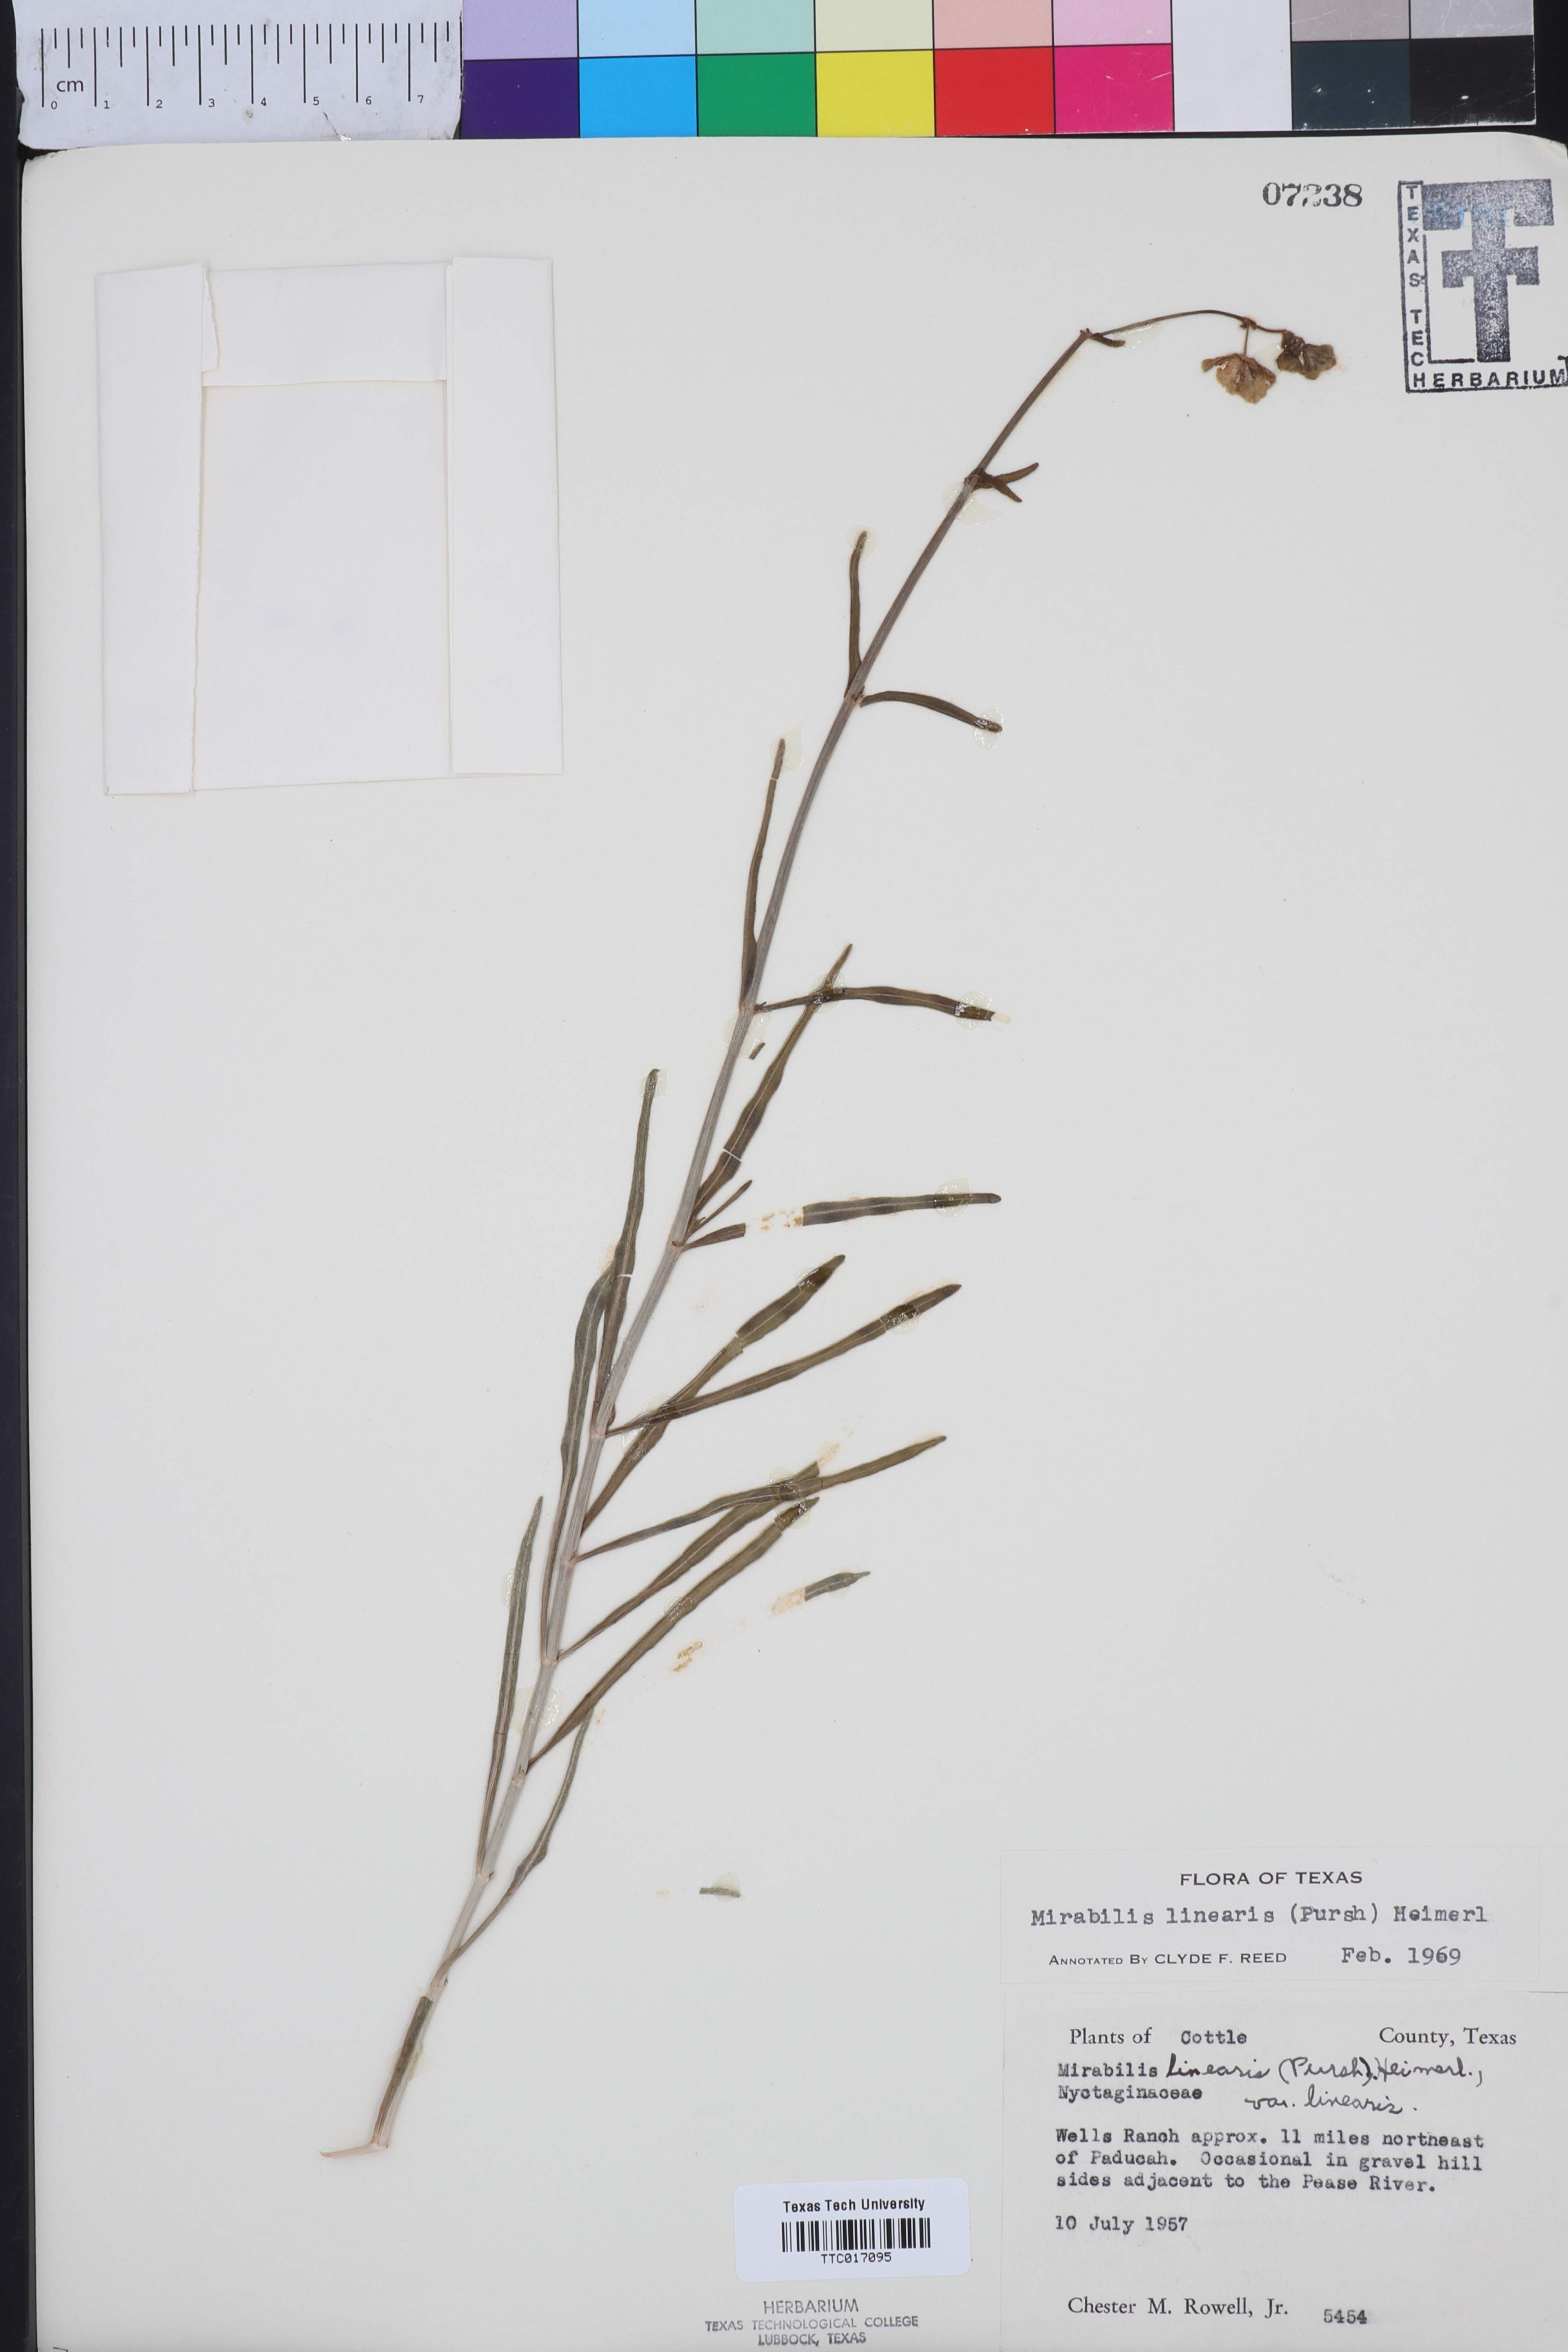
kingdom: Plantae
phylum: Tracheophyta
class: Magnoliopsida
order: Caryophyllales
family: Nyctaginaceae
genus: Mirabilis
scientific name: Mirabilis linearis
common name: Linear-leaved four-o'clock
